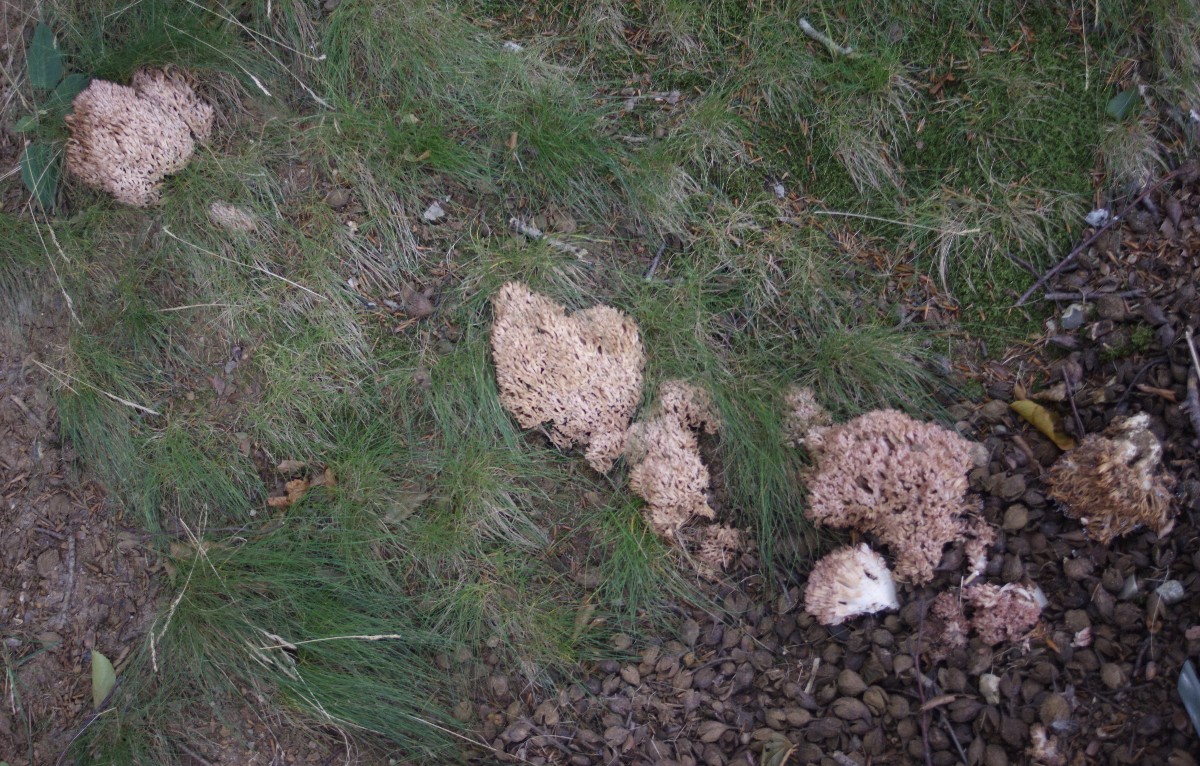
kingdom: Fungi
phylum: Basidiomycota
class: Agaricomycetes
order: Gomphales
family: Gomphaceae
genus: Ramaria
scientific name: Ramaria botrytis
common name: drue-koralsvamp
